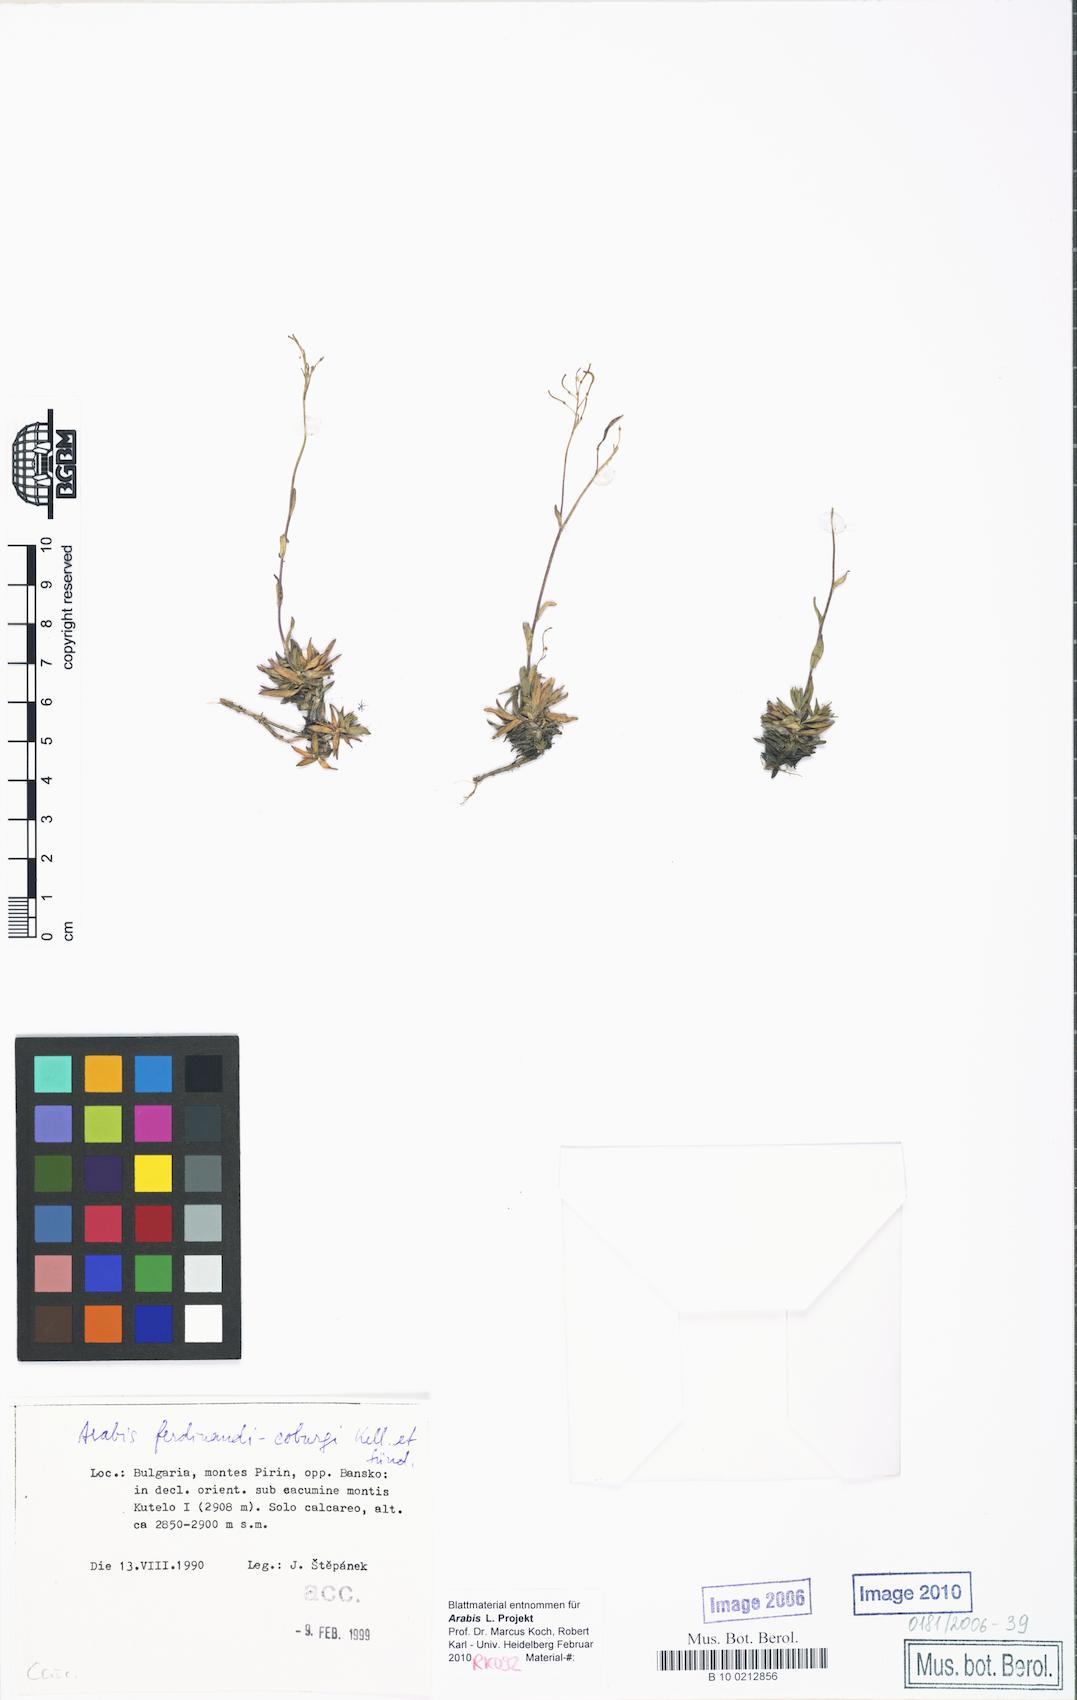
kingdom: Plantae
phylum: Tracheophyta
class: Magnoliopsida
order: Brassicales
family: Brassicaceae
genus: Arabis
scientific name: Arabis ferdinandi-coburgii
